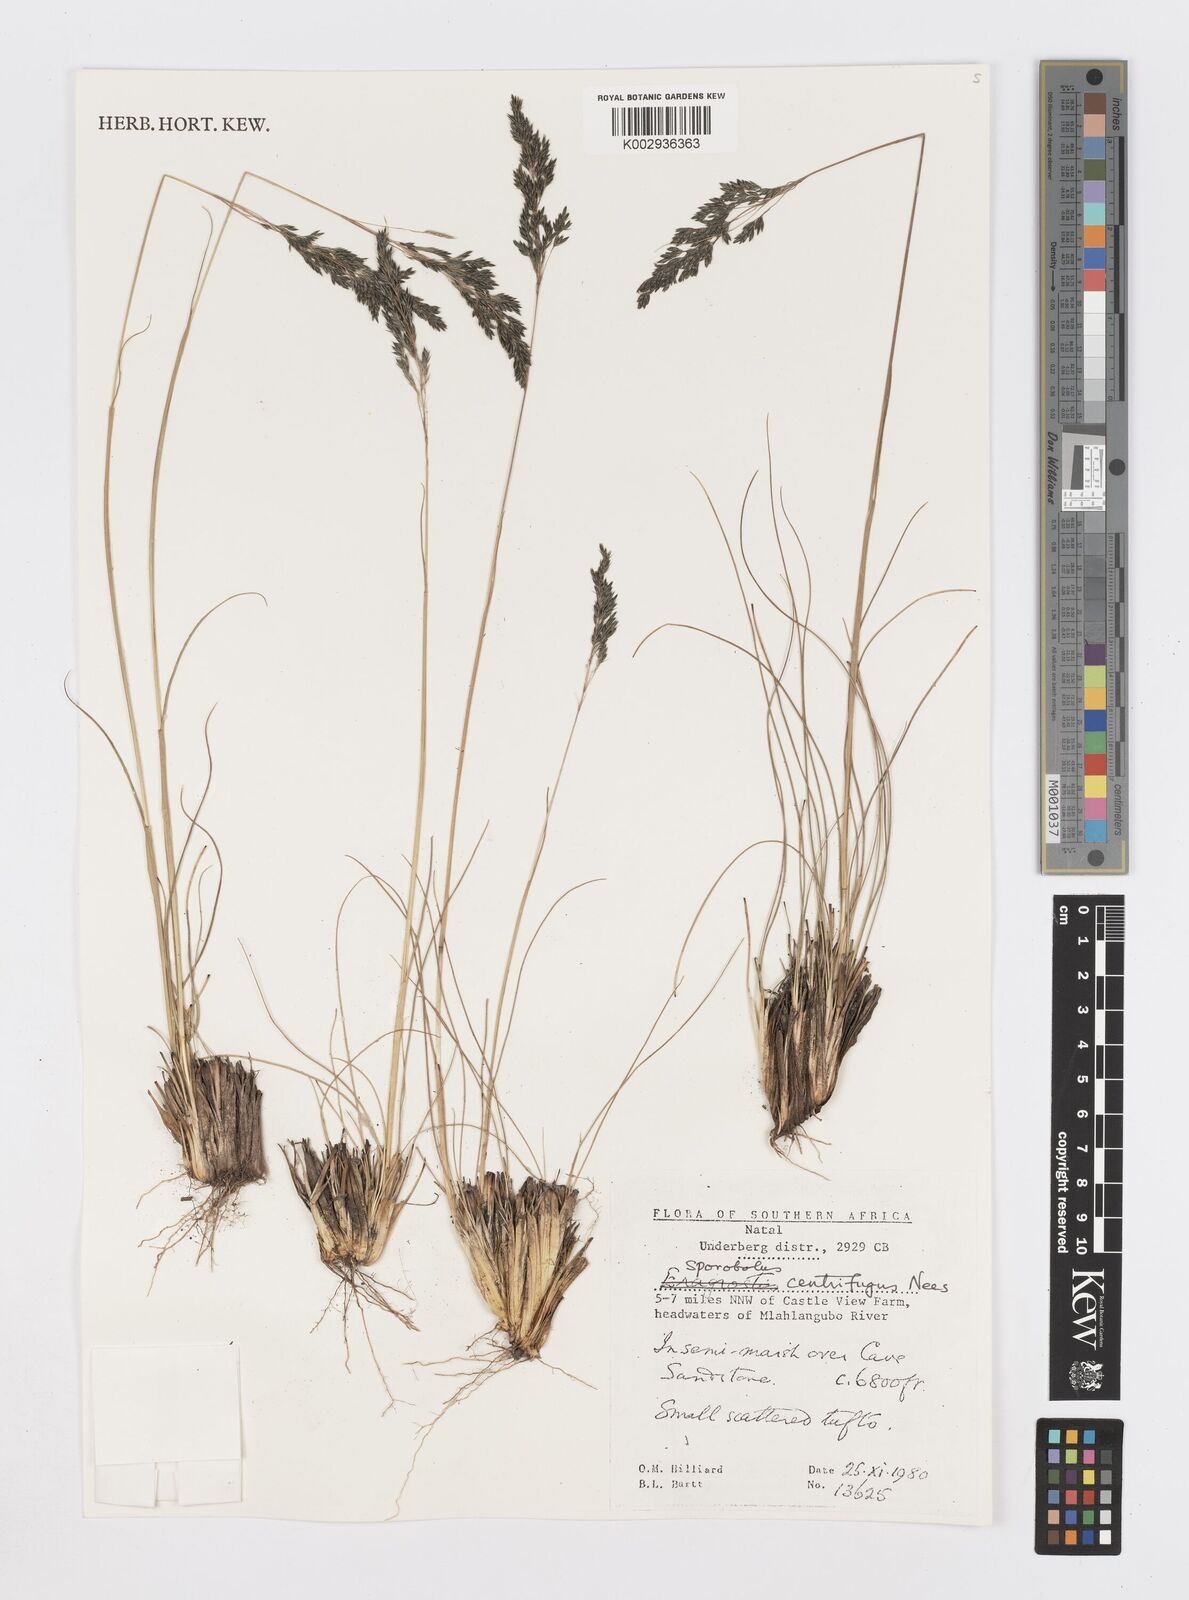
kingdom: Plantae
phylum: Tracheophyta
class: Liliopsida
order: Poales
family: Poaceae
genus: Sporobolus
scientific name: Sporobolus centrifugus
